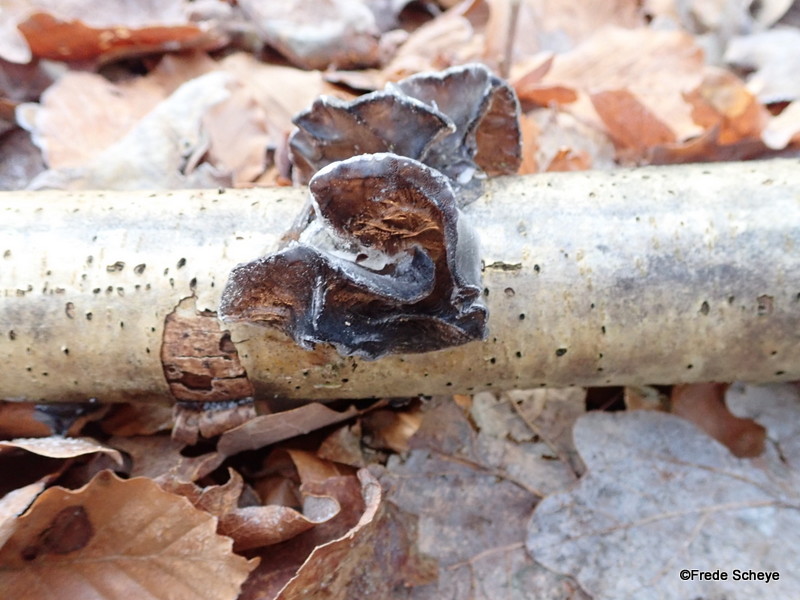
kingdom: Fungi
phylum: Basidiomycota
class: Agaricomycetes
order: Auriculariales
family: Auriculariaceae
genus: Exidia
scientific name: Exidia glandulosa
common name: ege-bævretop
